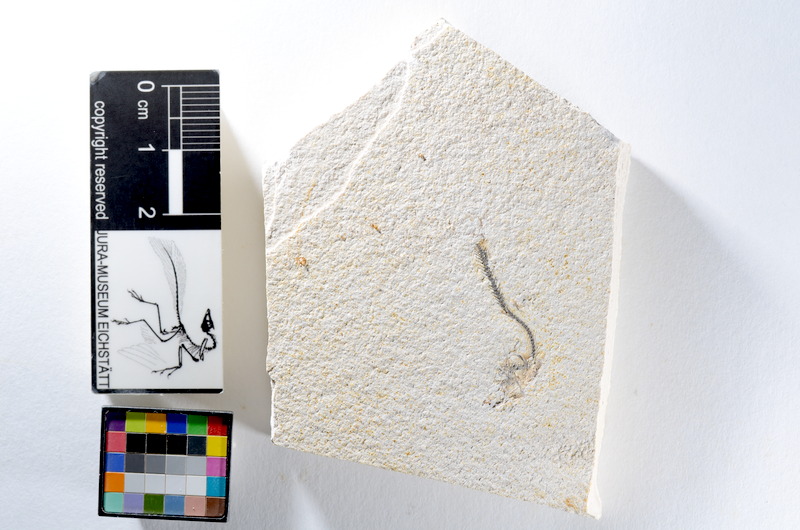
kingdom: Animalia
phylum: Chordata
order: Salmoniformes
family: Orthogonikleithridae
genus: Orthogonikleithrus
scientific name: Orthogonikleithrus hoelli
